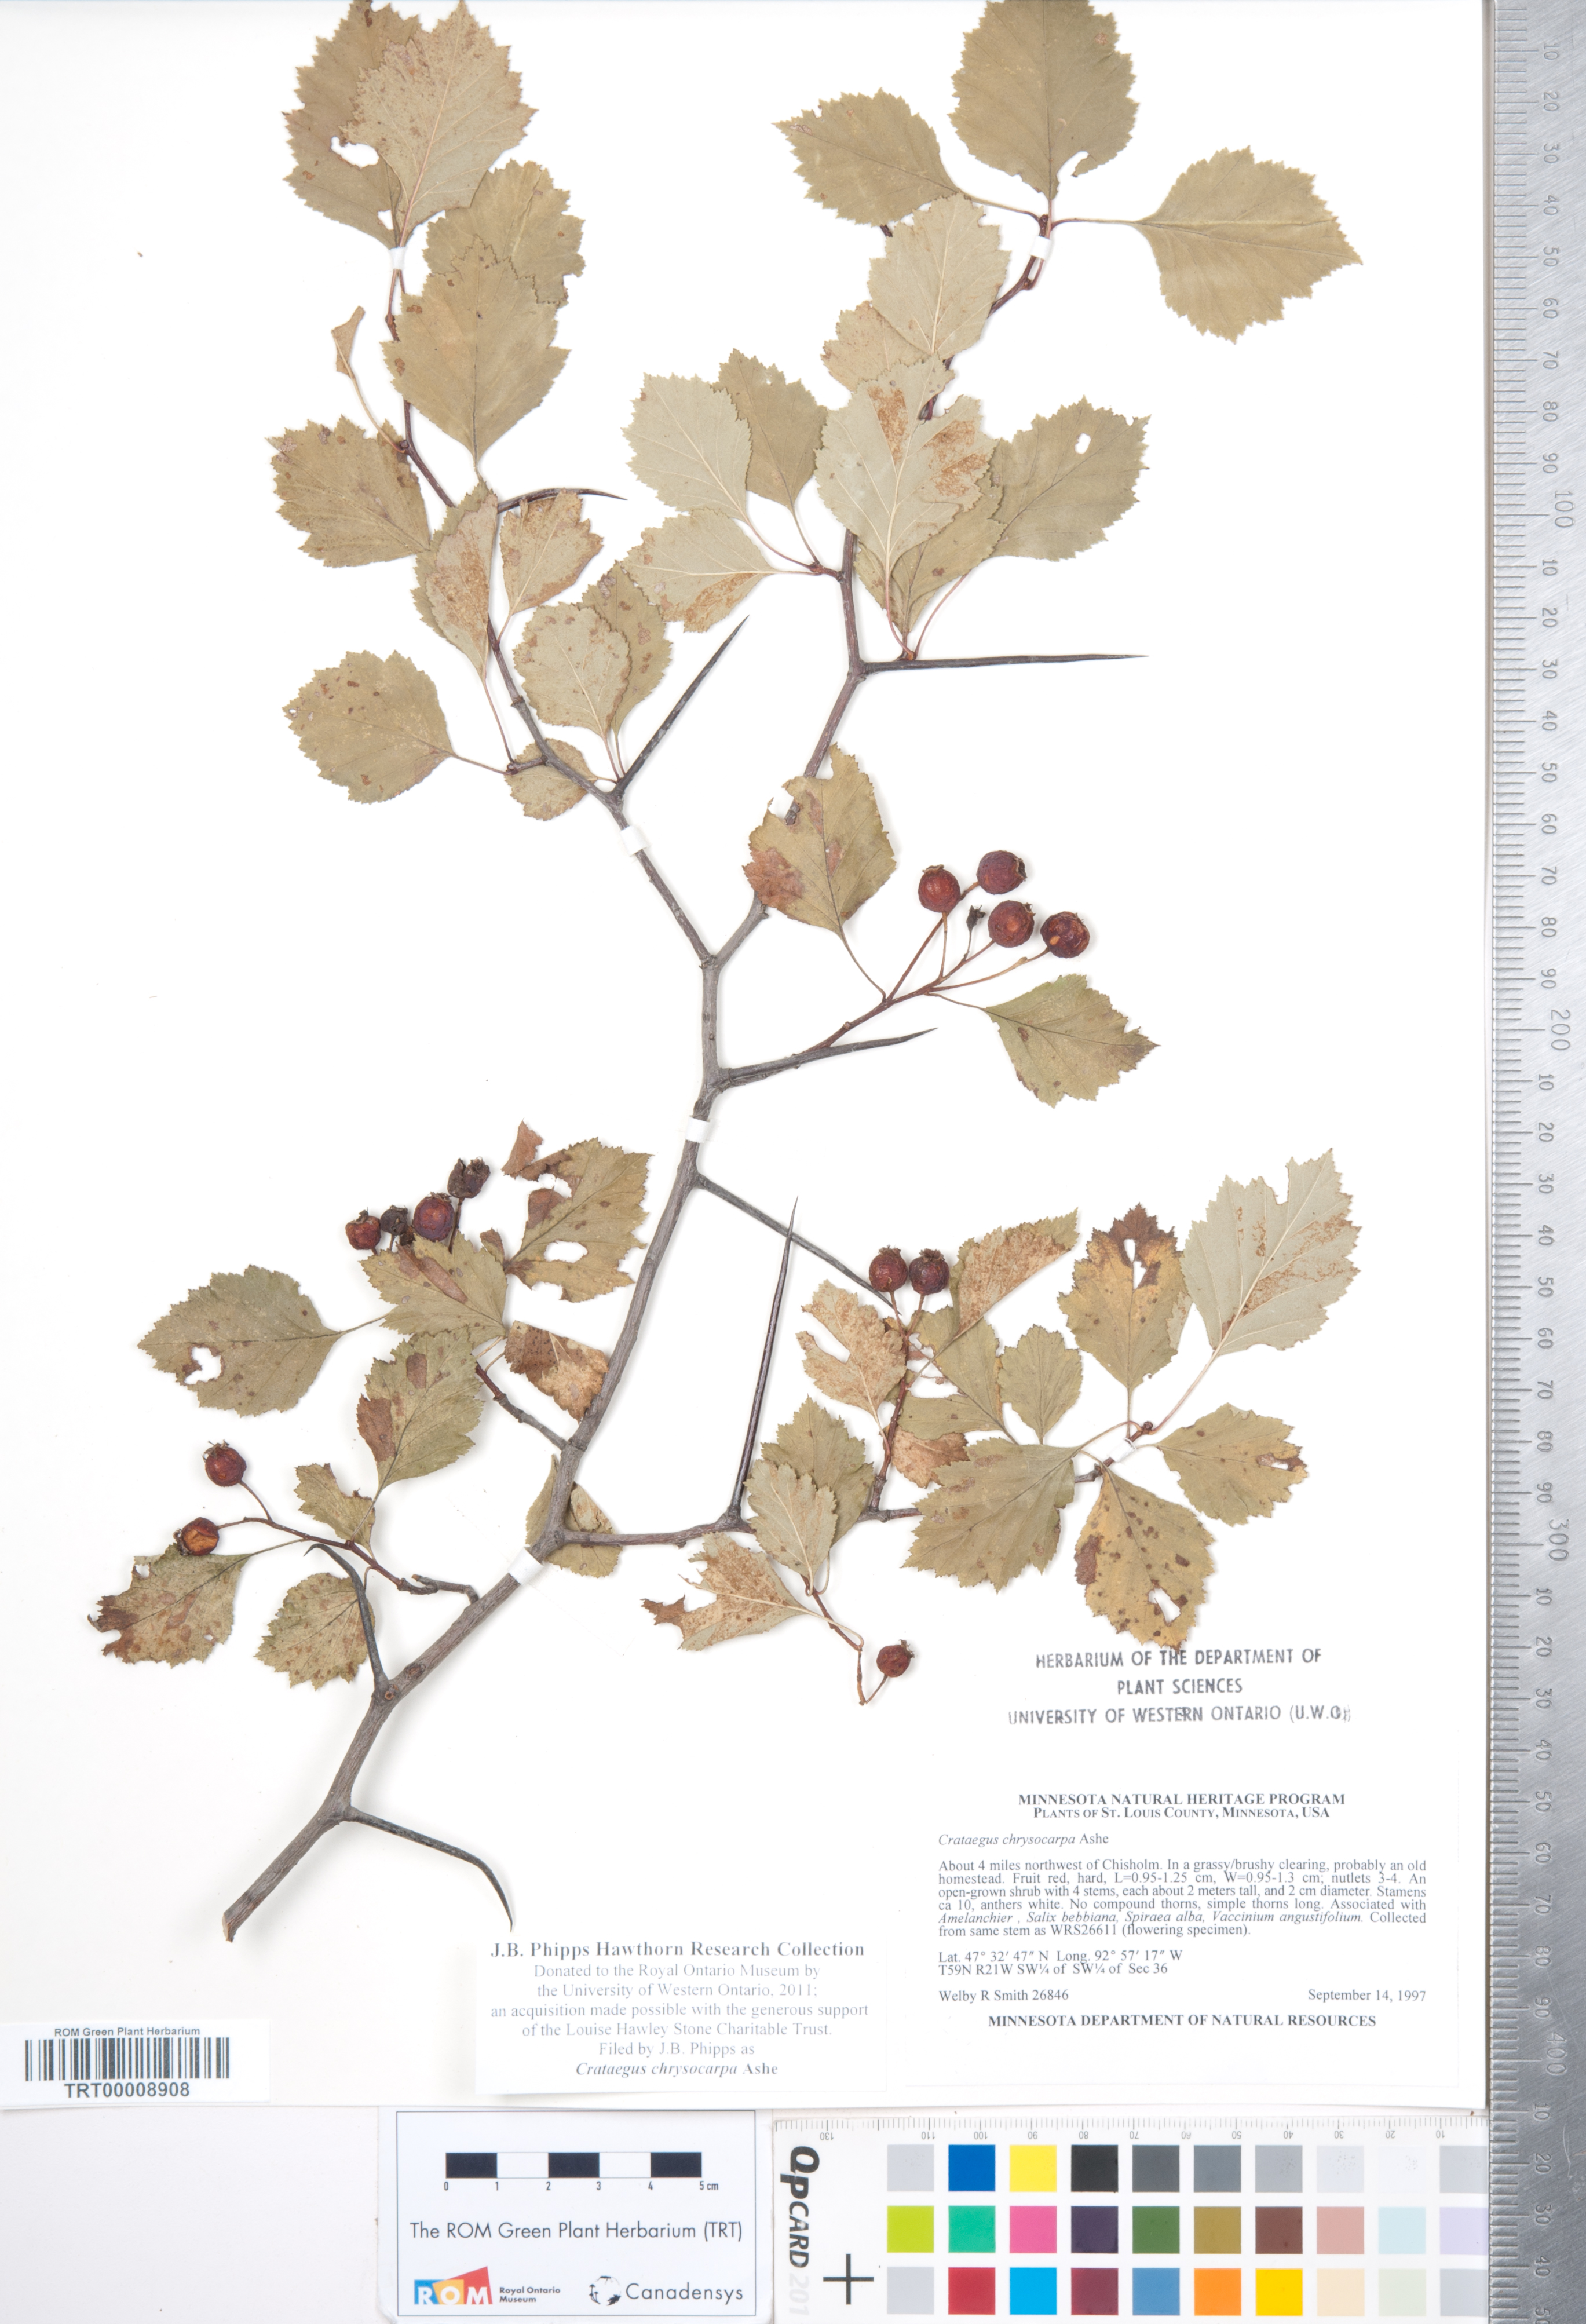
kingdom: Plantae
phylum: Tracheophyta
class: Magnoliopsida
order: Rosales
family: Rosaceae
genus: Crataegus
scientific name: Crataegus chrysocarpa
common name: Fire-berry hawthorn
